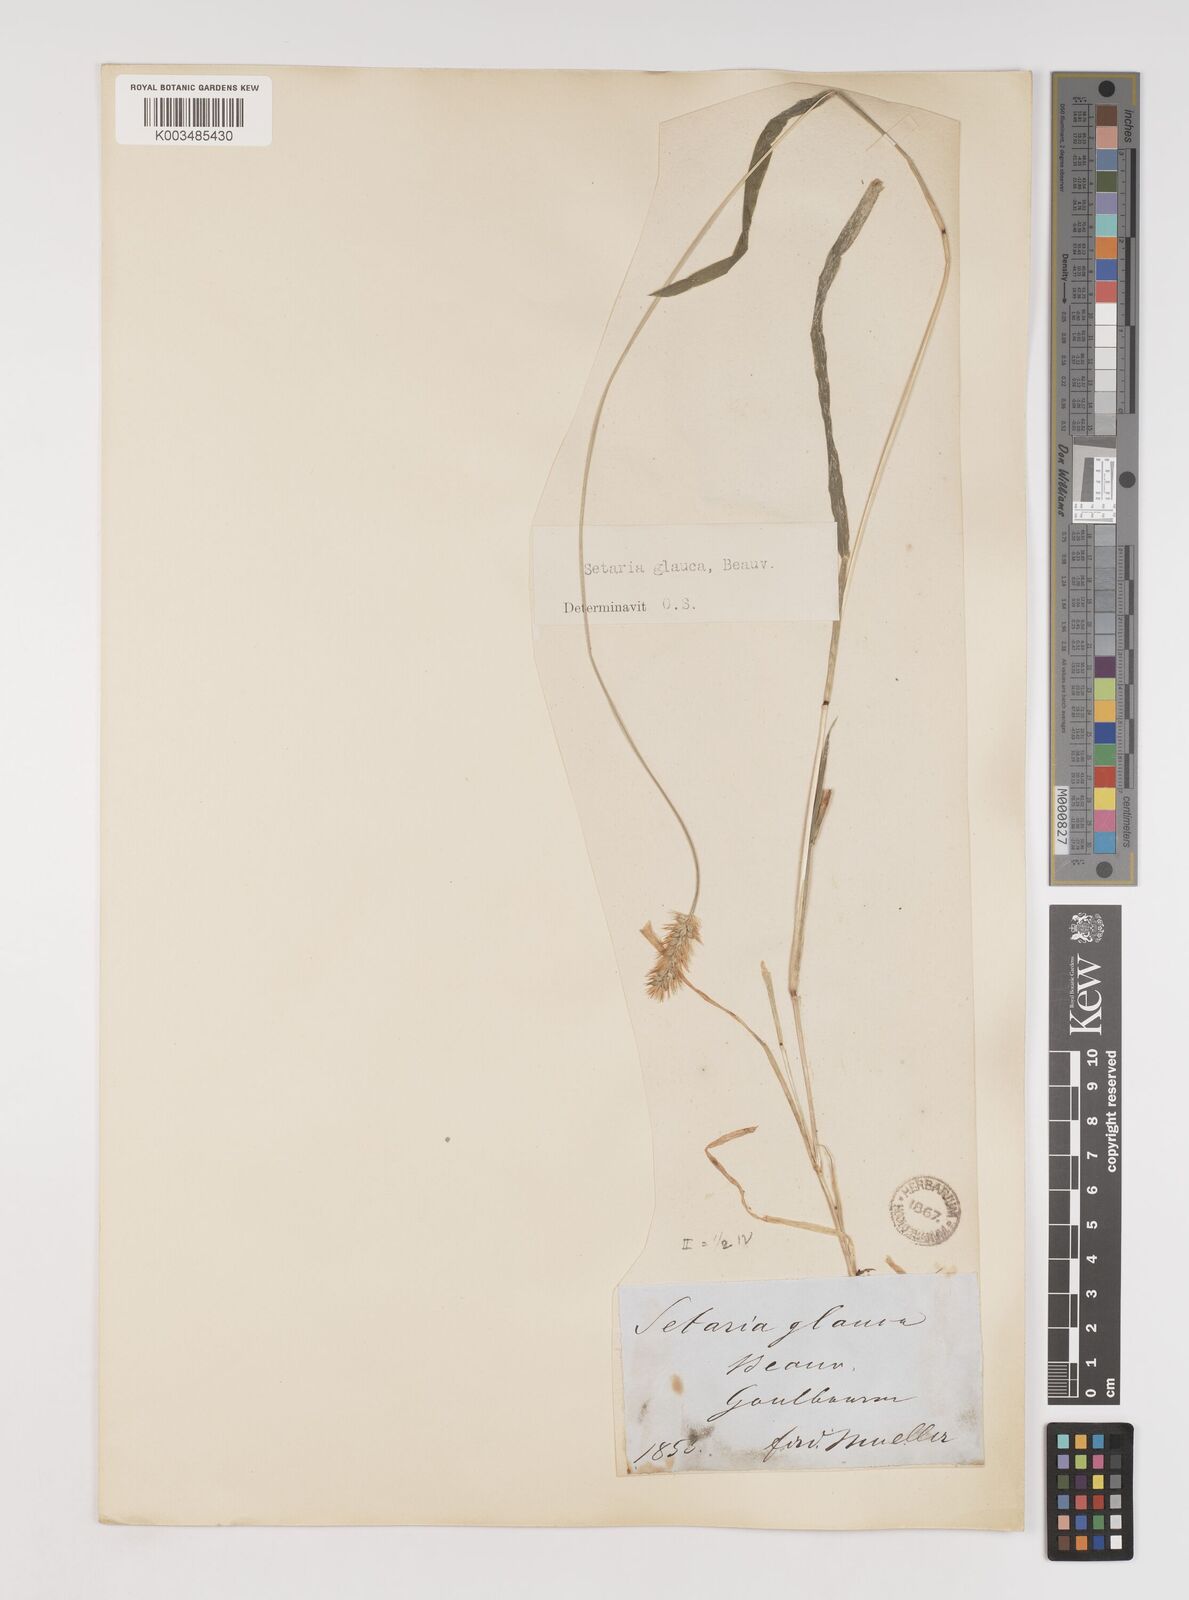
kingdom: Plantae
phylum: Tracheophyta
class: Liliopsida
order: Poales
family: Poaceae
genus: Setaria
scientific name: Setaria pumila
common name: Yellow bristle-grass
